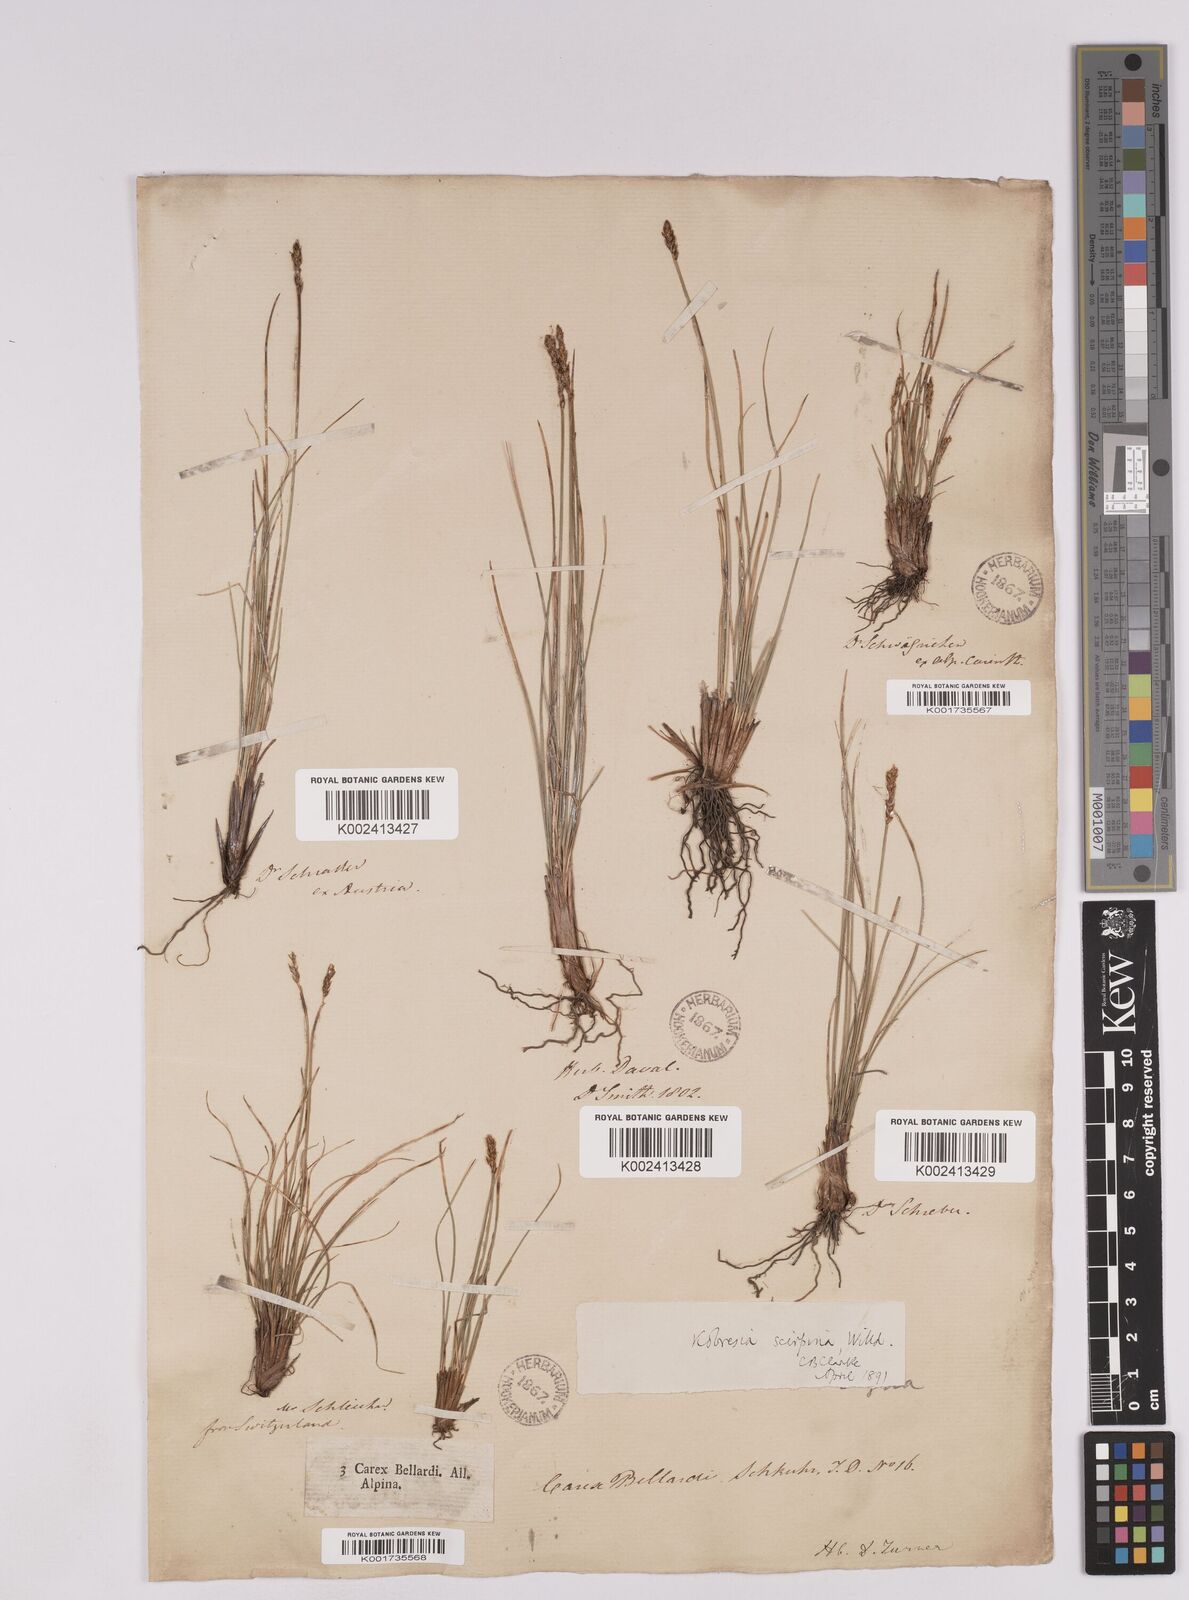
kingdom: Plantae
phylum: Tracheophyta
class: Liliopsida
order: Poales
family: Cyperaceae
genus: Carex
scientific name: Carex myosuroides
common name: Bellard's bog sedge
